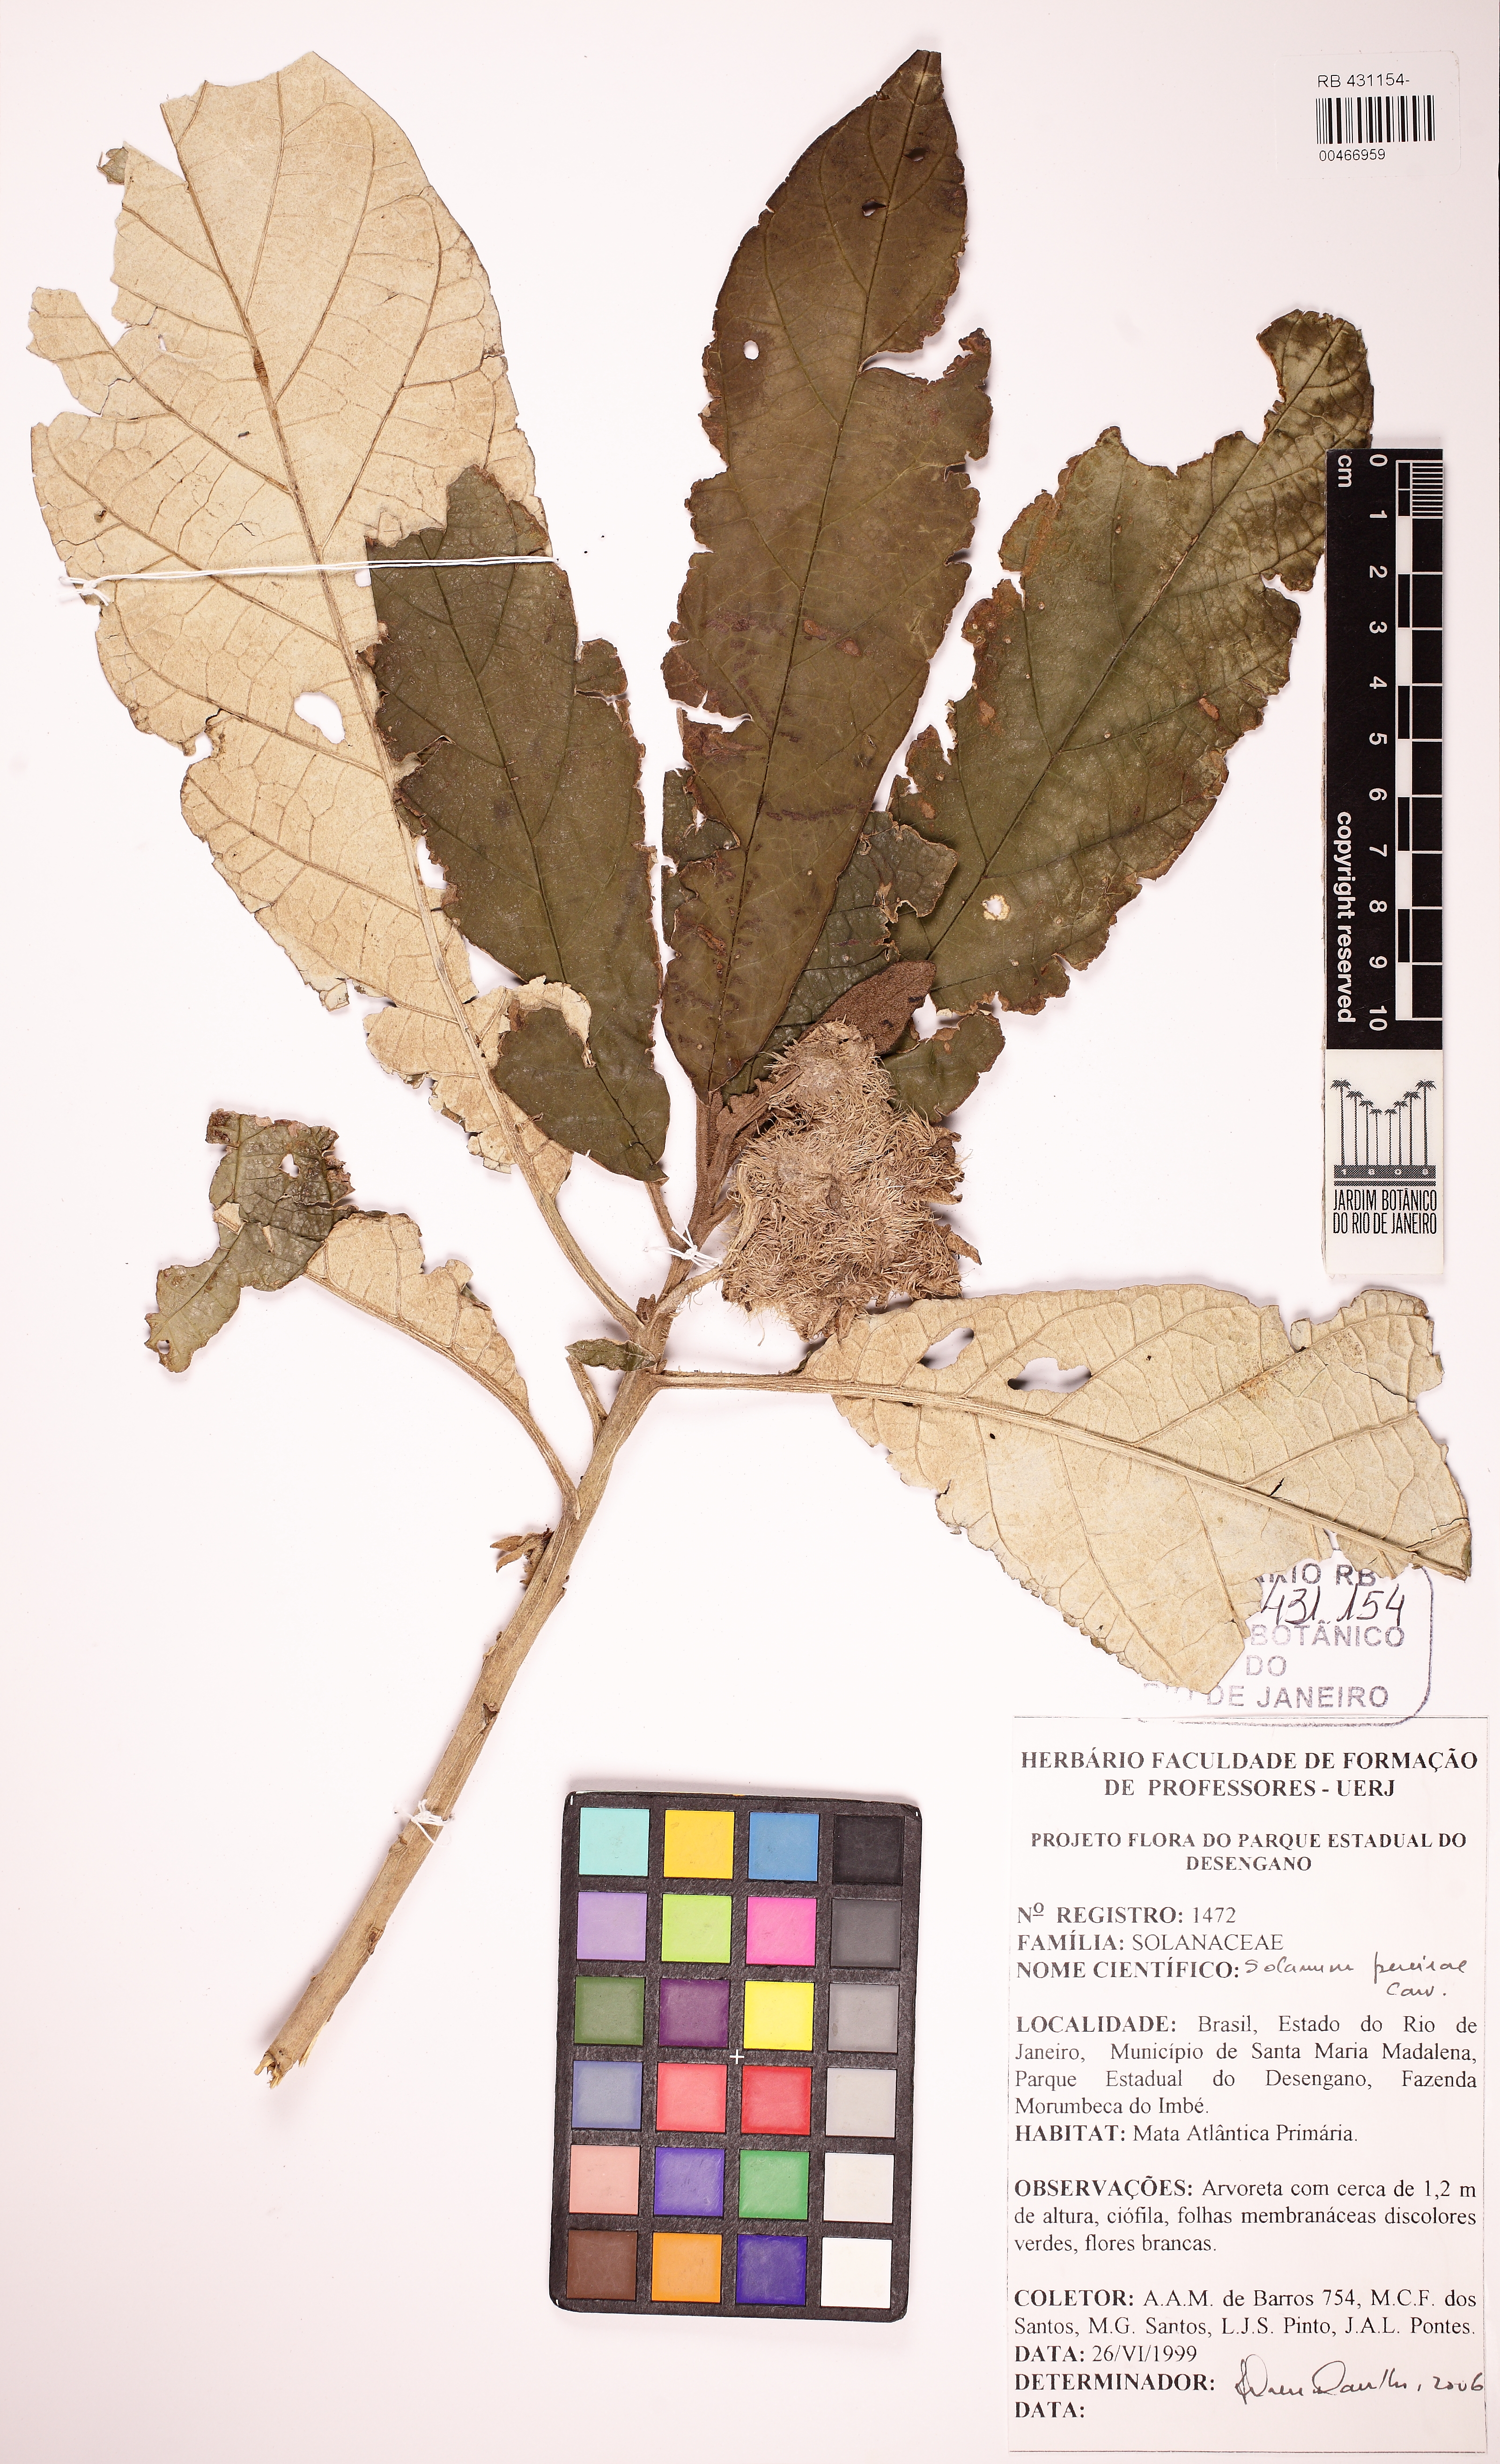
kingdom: Plantae
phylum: Tracheophyta
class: Magnoliopsida
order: Solanales
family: Solanaceae
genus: Solanum
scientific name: Solanum pereirae
